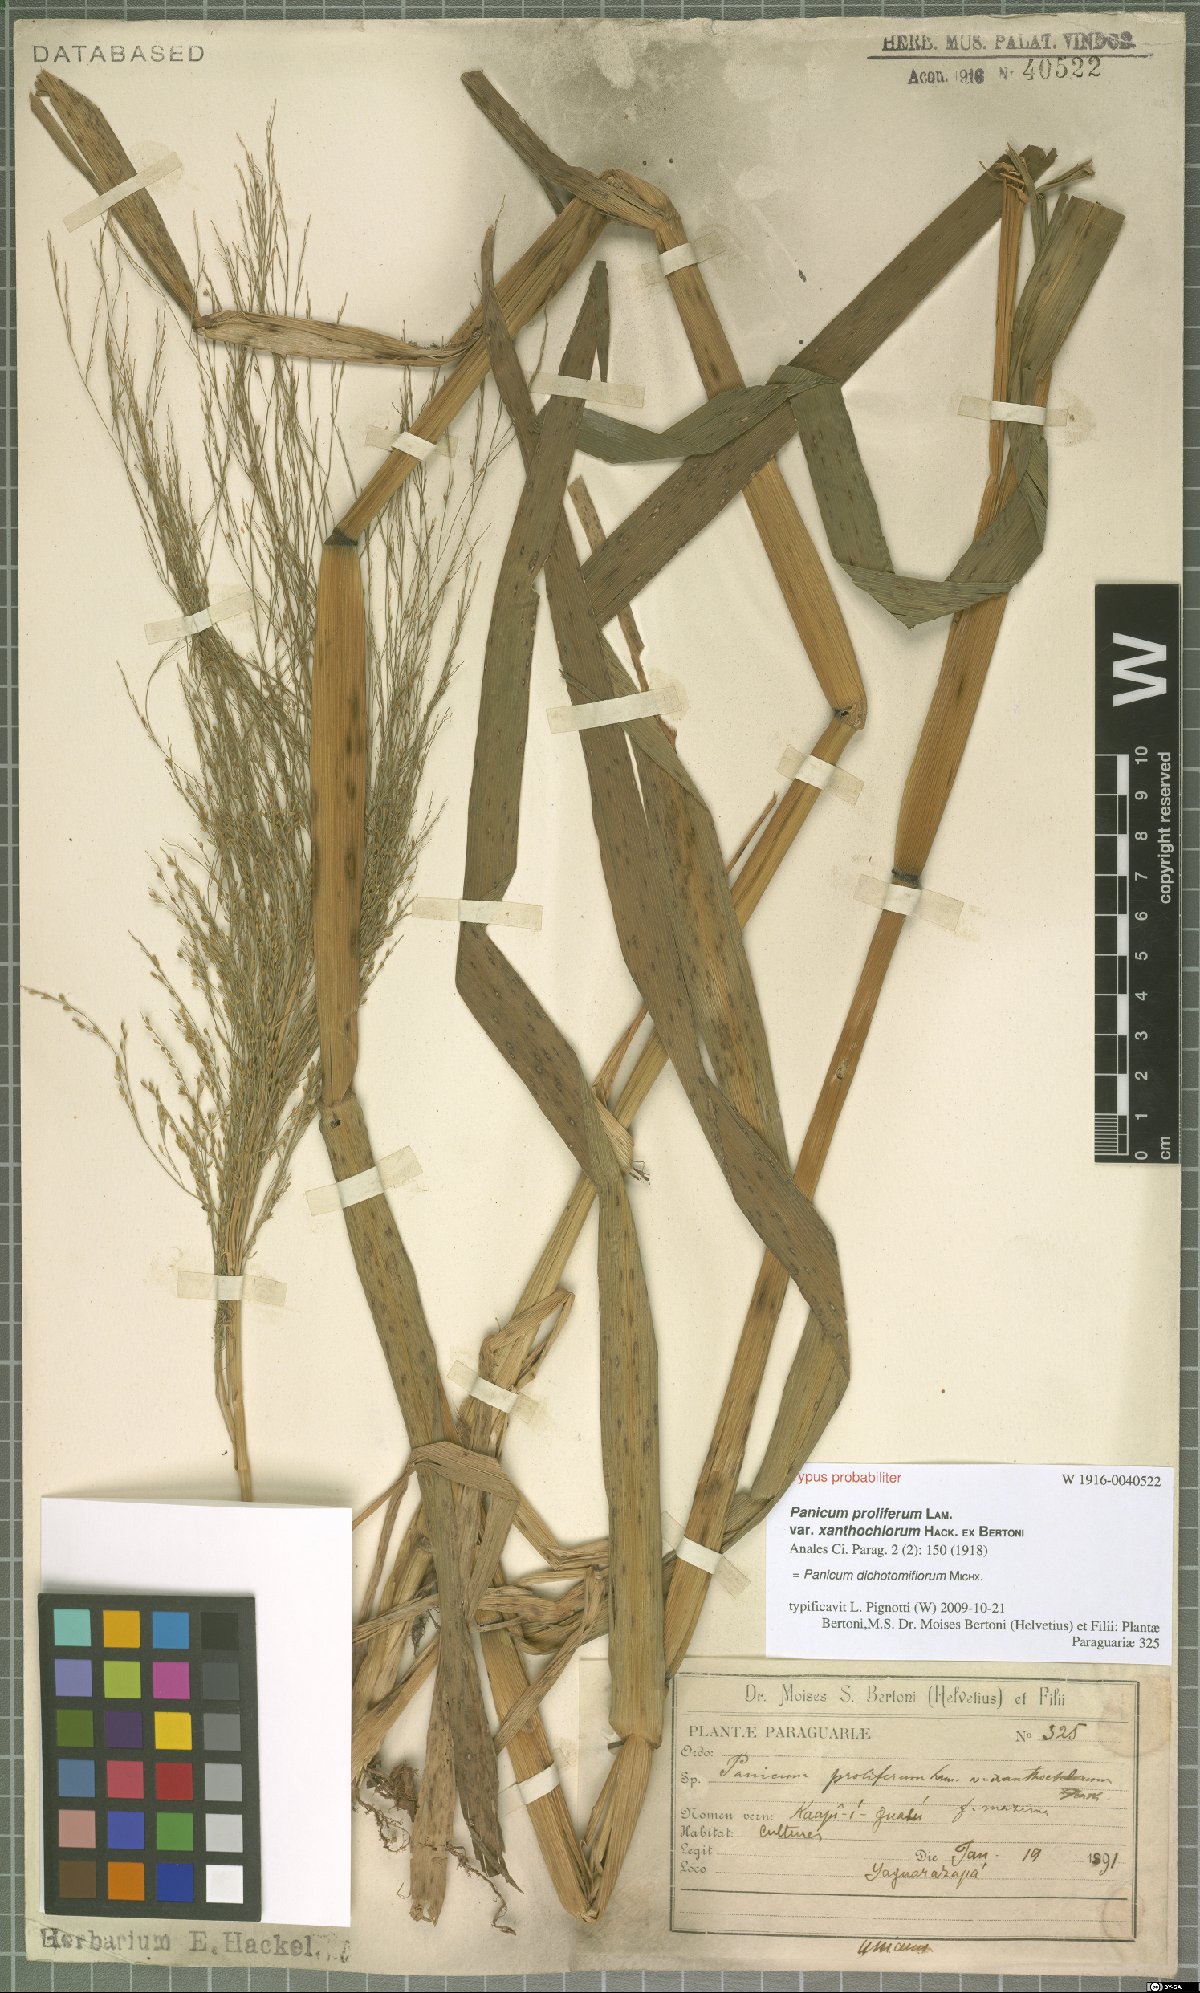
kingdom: Plantae
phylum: Tracheophyta
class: Liliopsida
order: Poales
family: Poaceae
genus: Panicum
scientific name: Panicum dichotomiflorum
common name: Autumn millet
